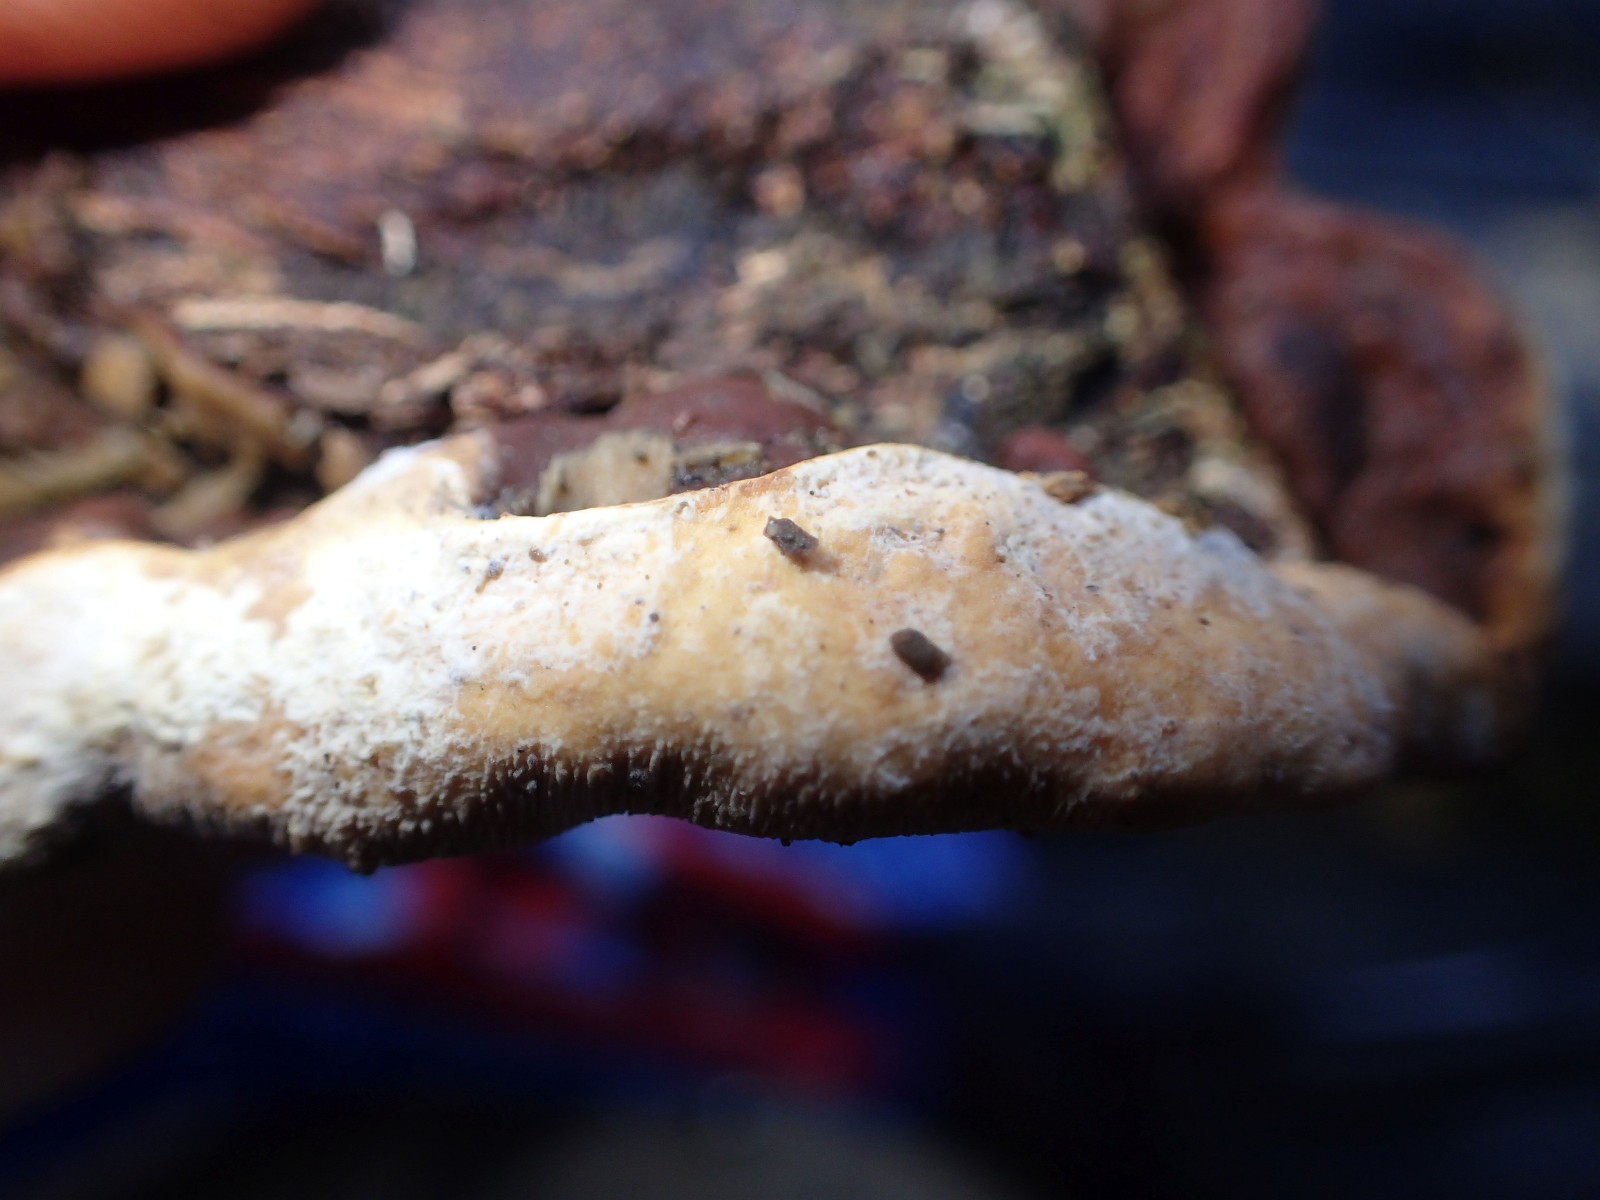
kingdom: Fungi
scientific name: Fungi
